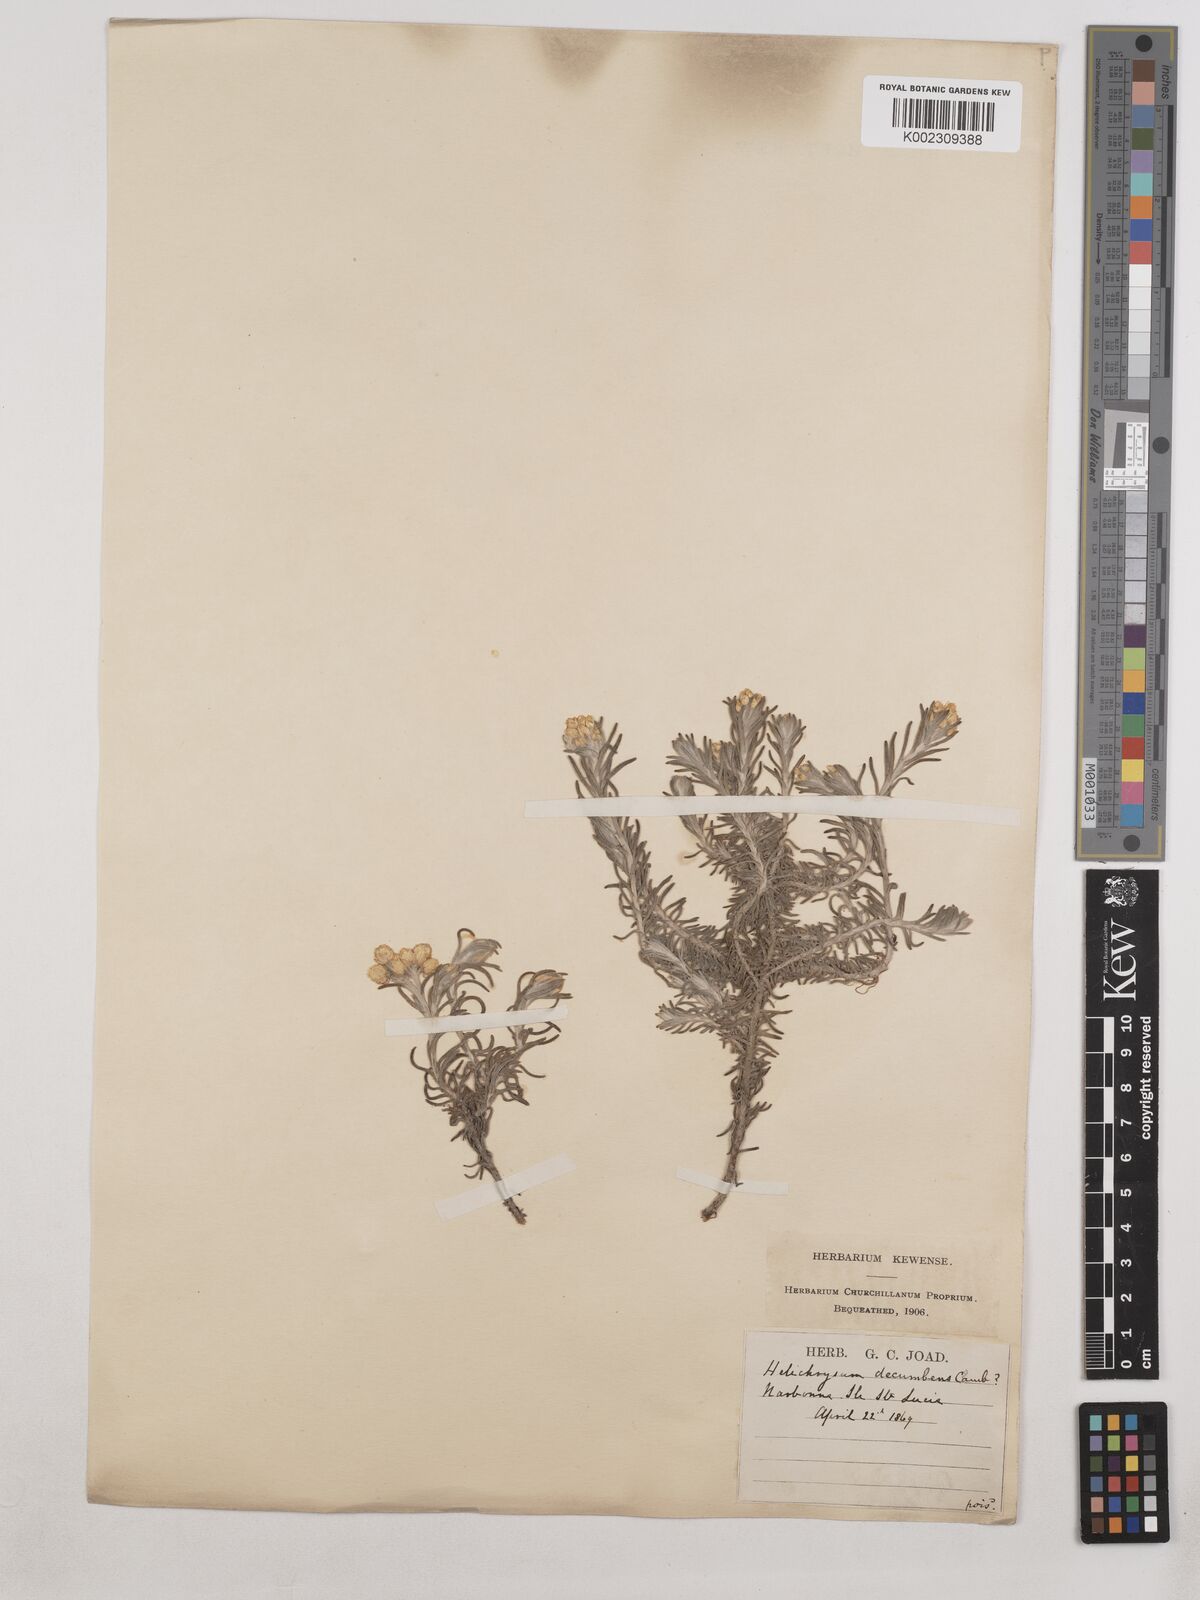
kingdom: Plantae
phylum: Tracheophyta
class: Magnoliopsida
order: Asterales
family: Asteraceae
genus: Helichrysum
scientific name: Helichrysum stoechas
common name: Goldilocks
